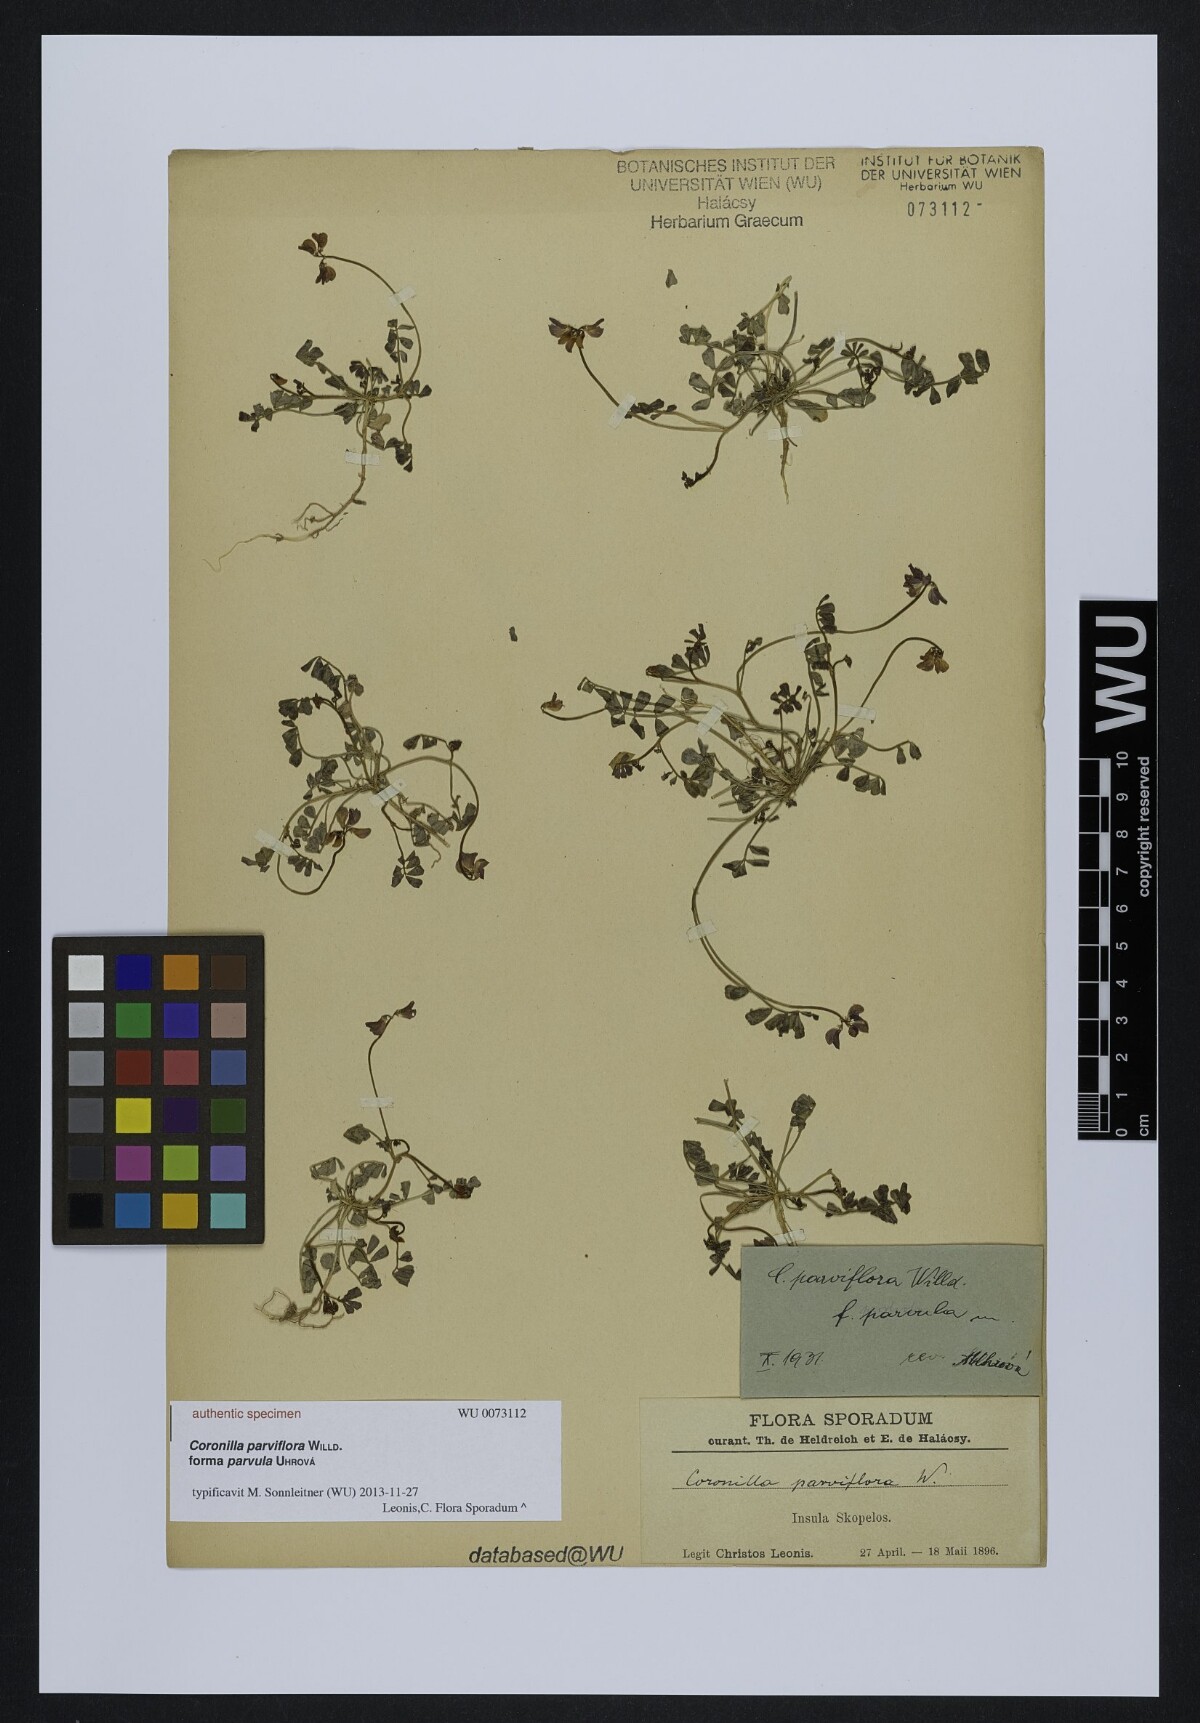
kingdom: Plantae
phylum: Tracheophyta
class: Magnoliopsida
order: Fabales
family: Fabaceae
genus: Coronilla
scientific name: Coronilla
